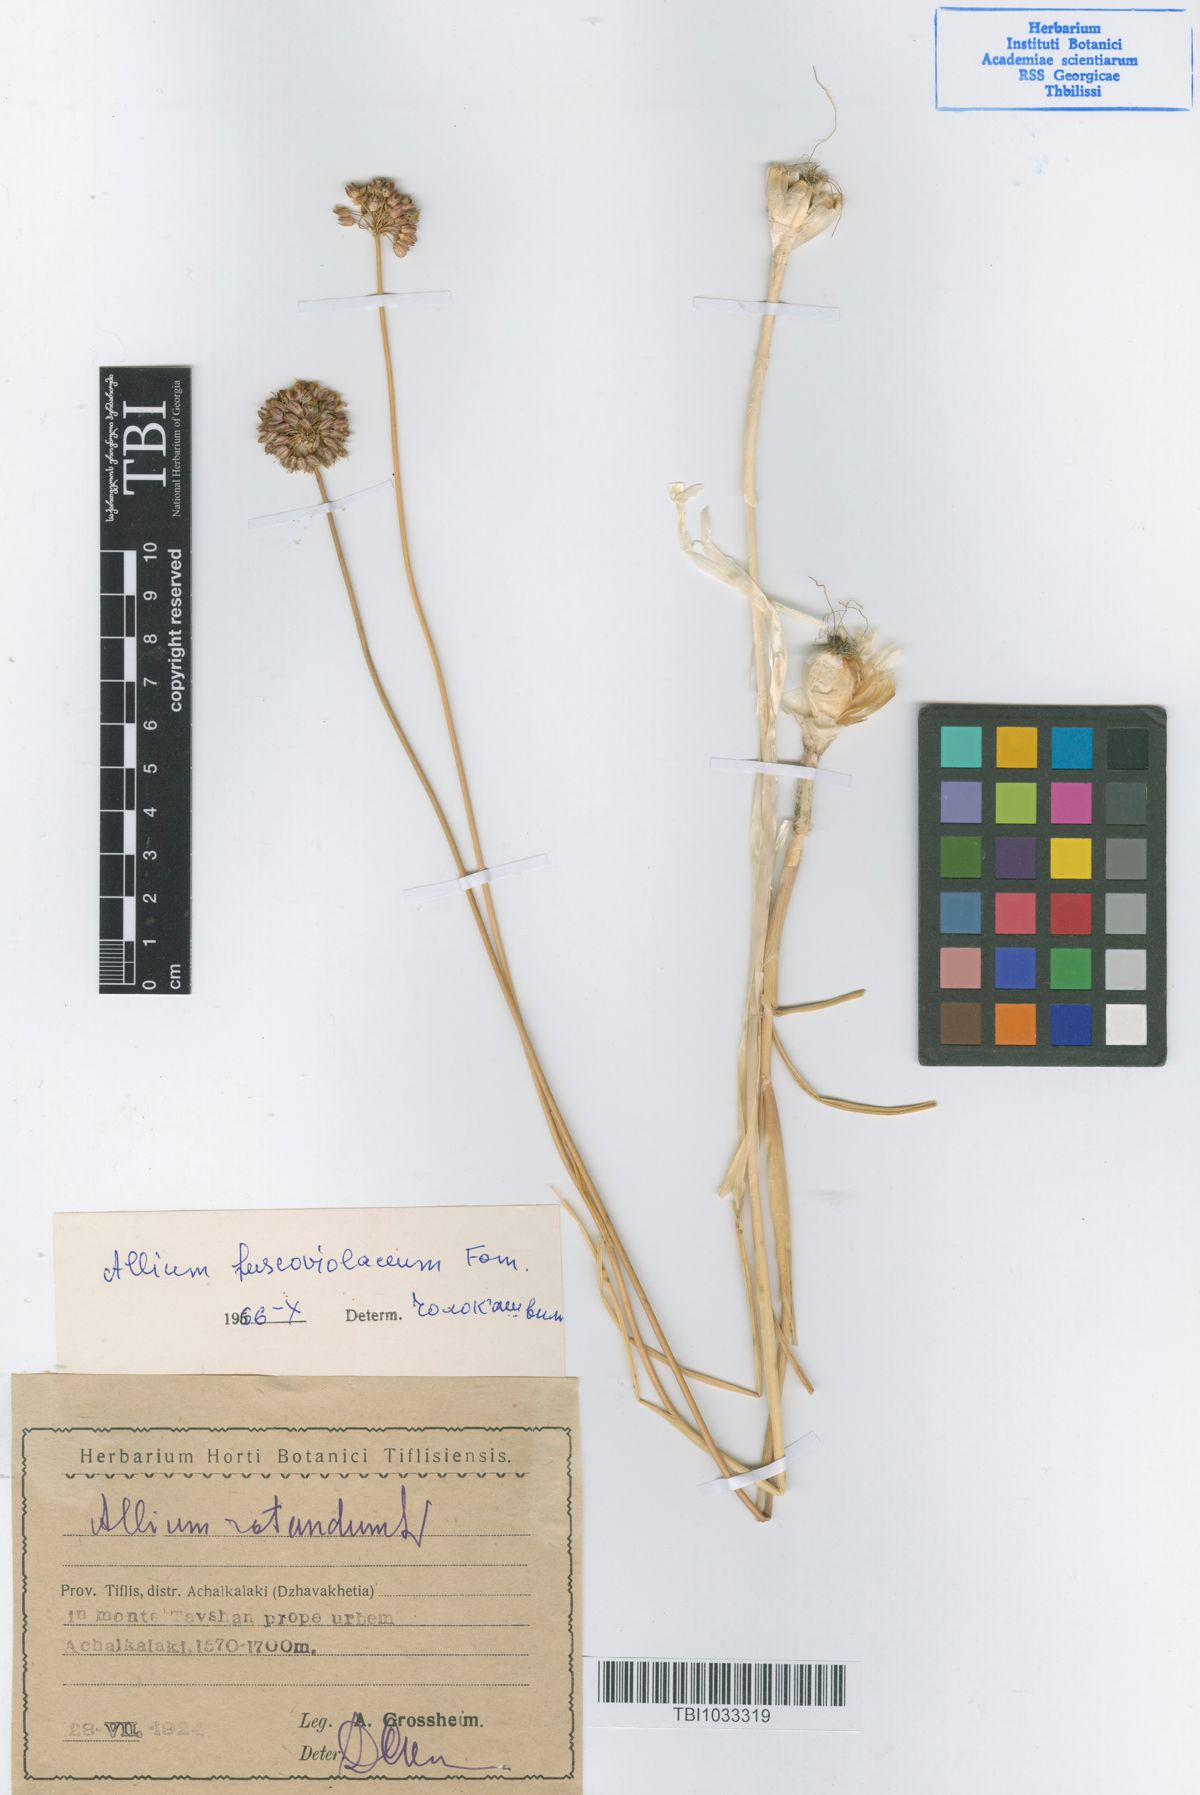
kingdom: Plantae
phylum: Tracheophyta
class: Liliopsida
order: Asparagales
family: Amaryllidaceae
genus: Allium
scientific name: Allium fuscoviolaceum
